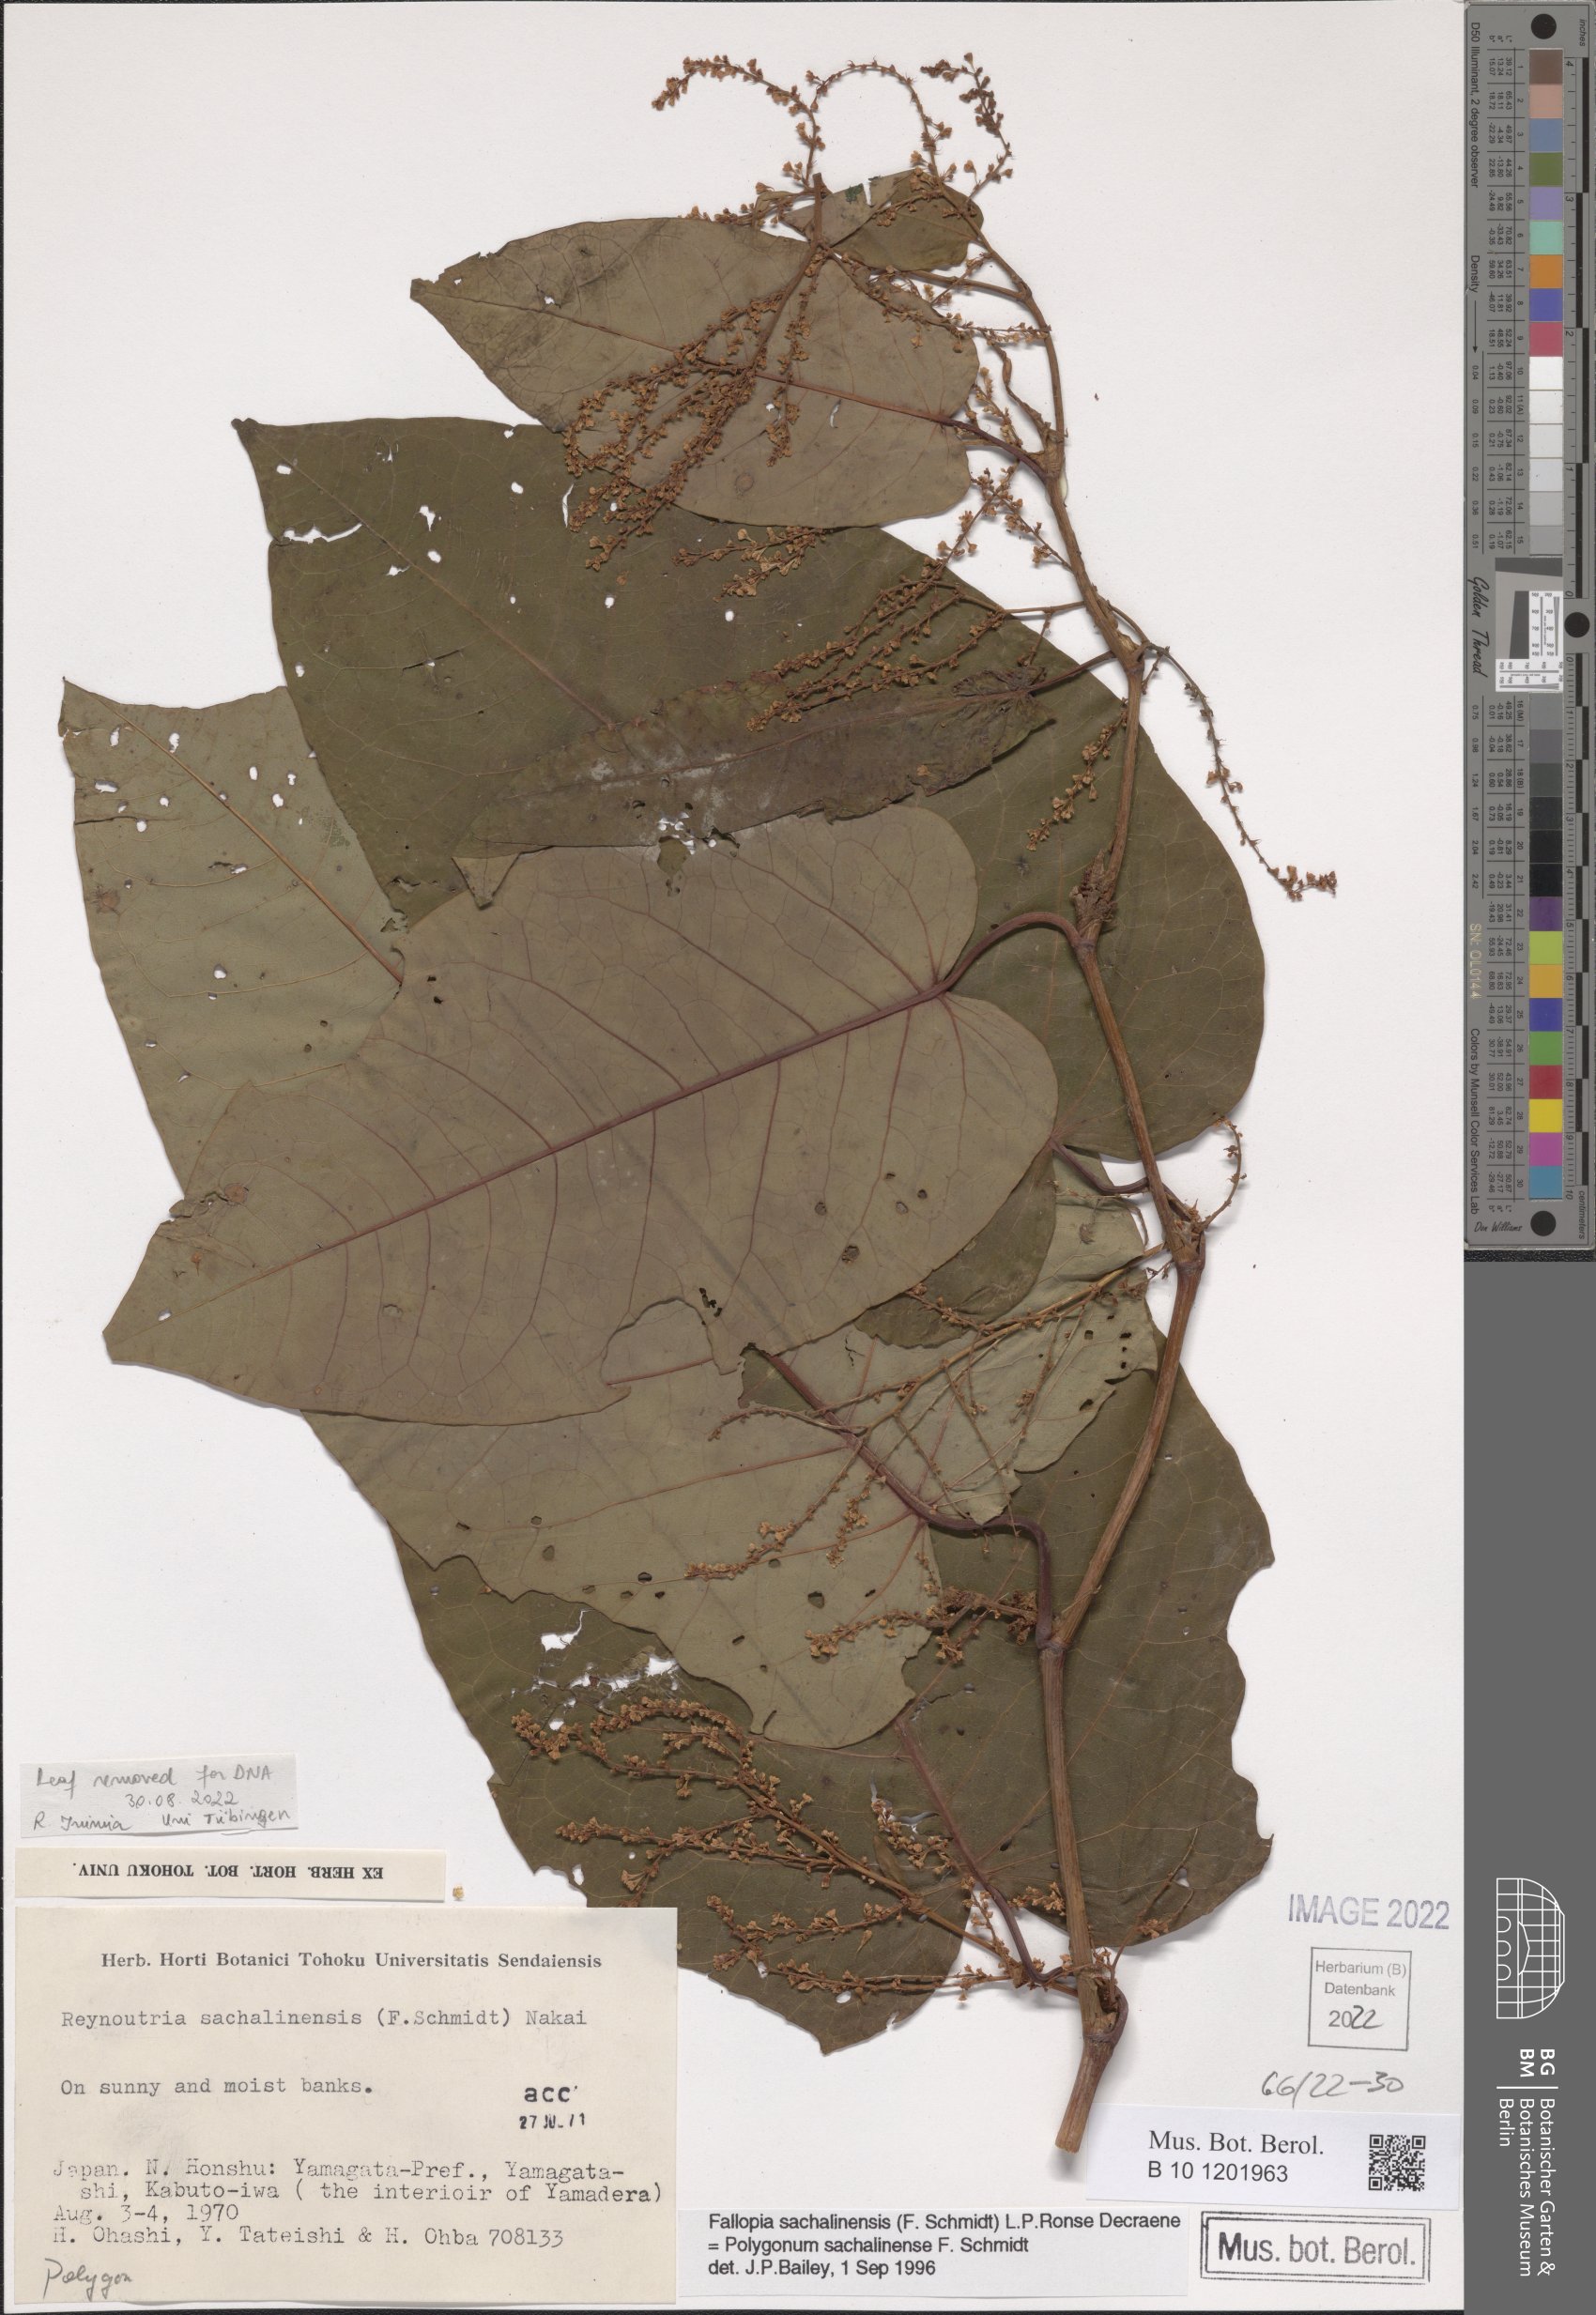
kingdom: Plantae
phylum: Tracheophyta
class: Magnoliopsida
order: Caryophyllales
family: Polygonaceae
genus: Reynoutria
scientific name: Reynoutria sachalinensis
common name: Giant knotweed
